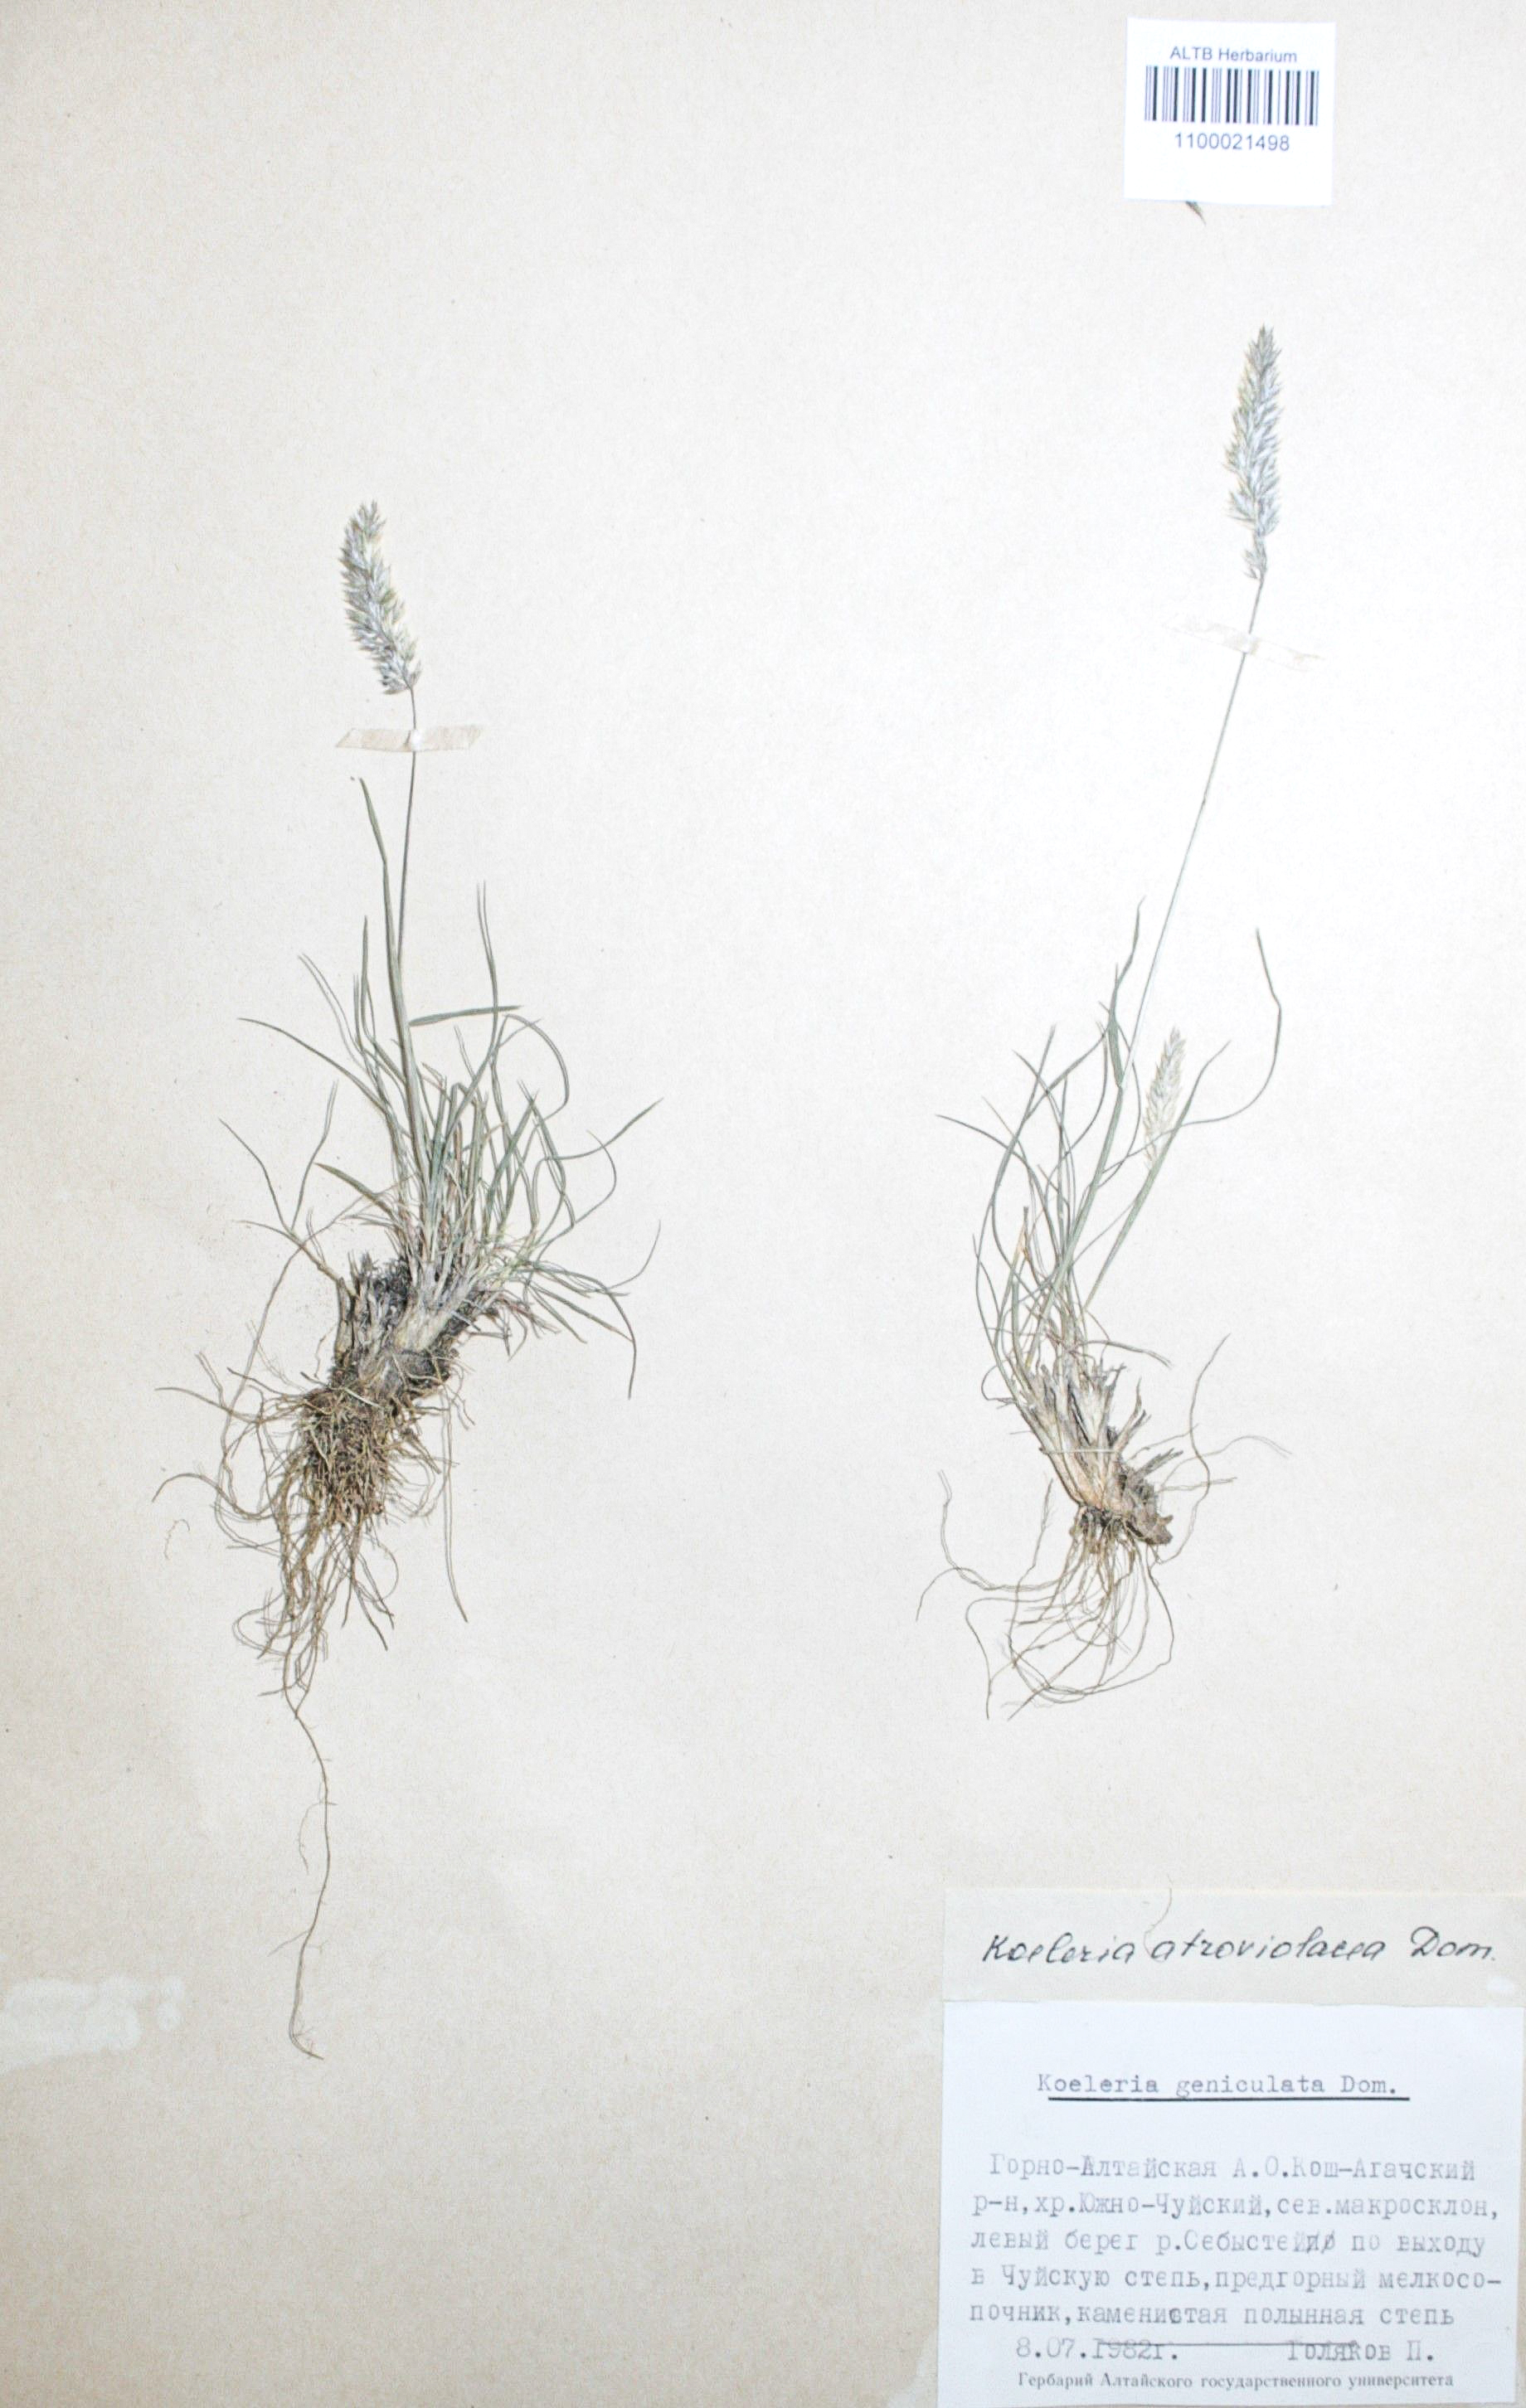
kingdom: Plantae
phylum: Tracheophyta
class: Liliopsida
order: Poales
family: Poaceae
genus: Koeleria
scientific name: Koeleria asiatica
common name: Eurasian junegrass
